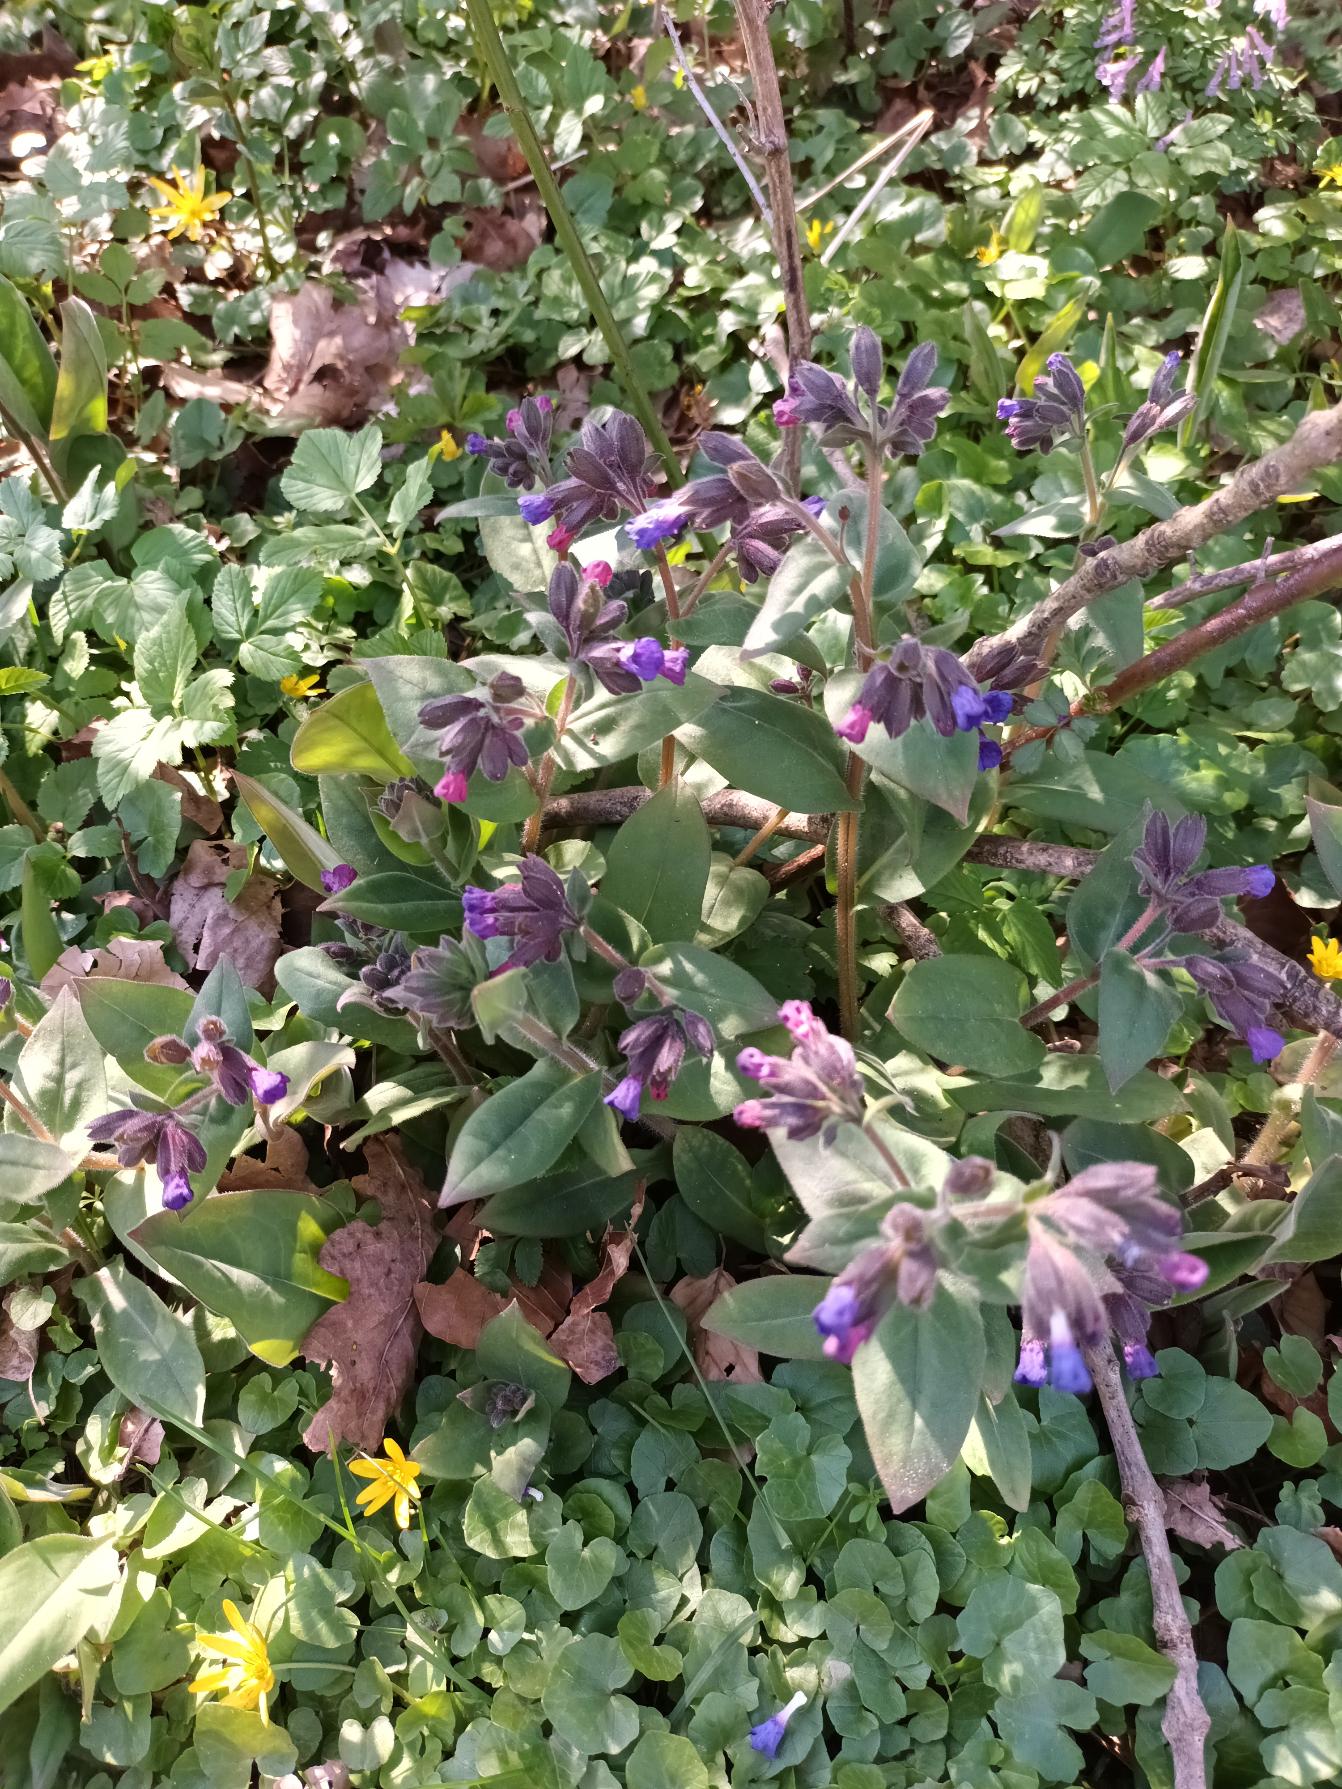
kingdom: Plantae
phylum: Tracheophyta
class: Magnoliopsida
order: Boraginales
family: Boraginaceae
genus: Pulmonaria
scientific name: Pulmonaria
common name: Lungeurtslægten
